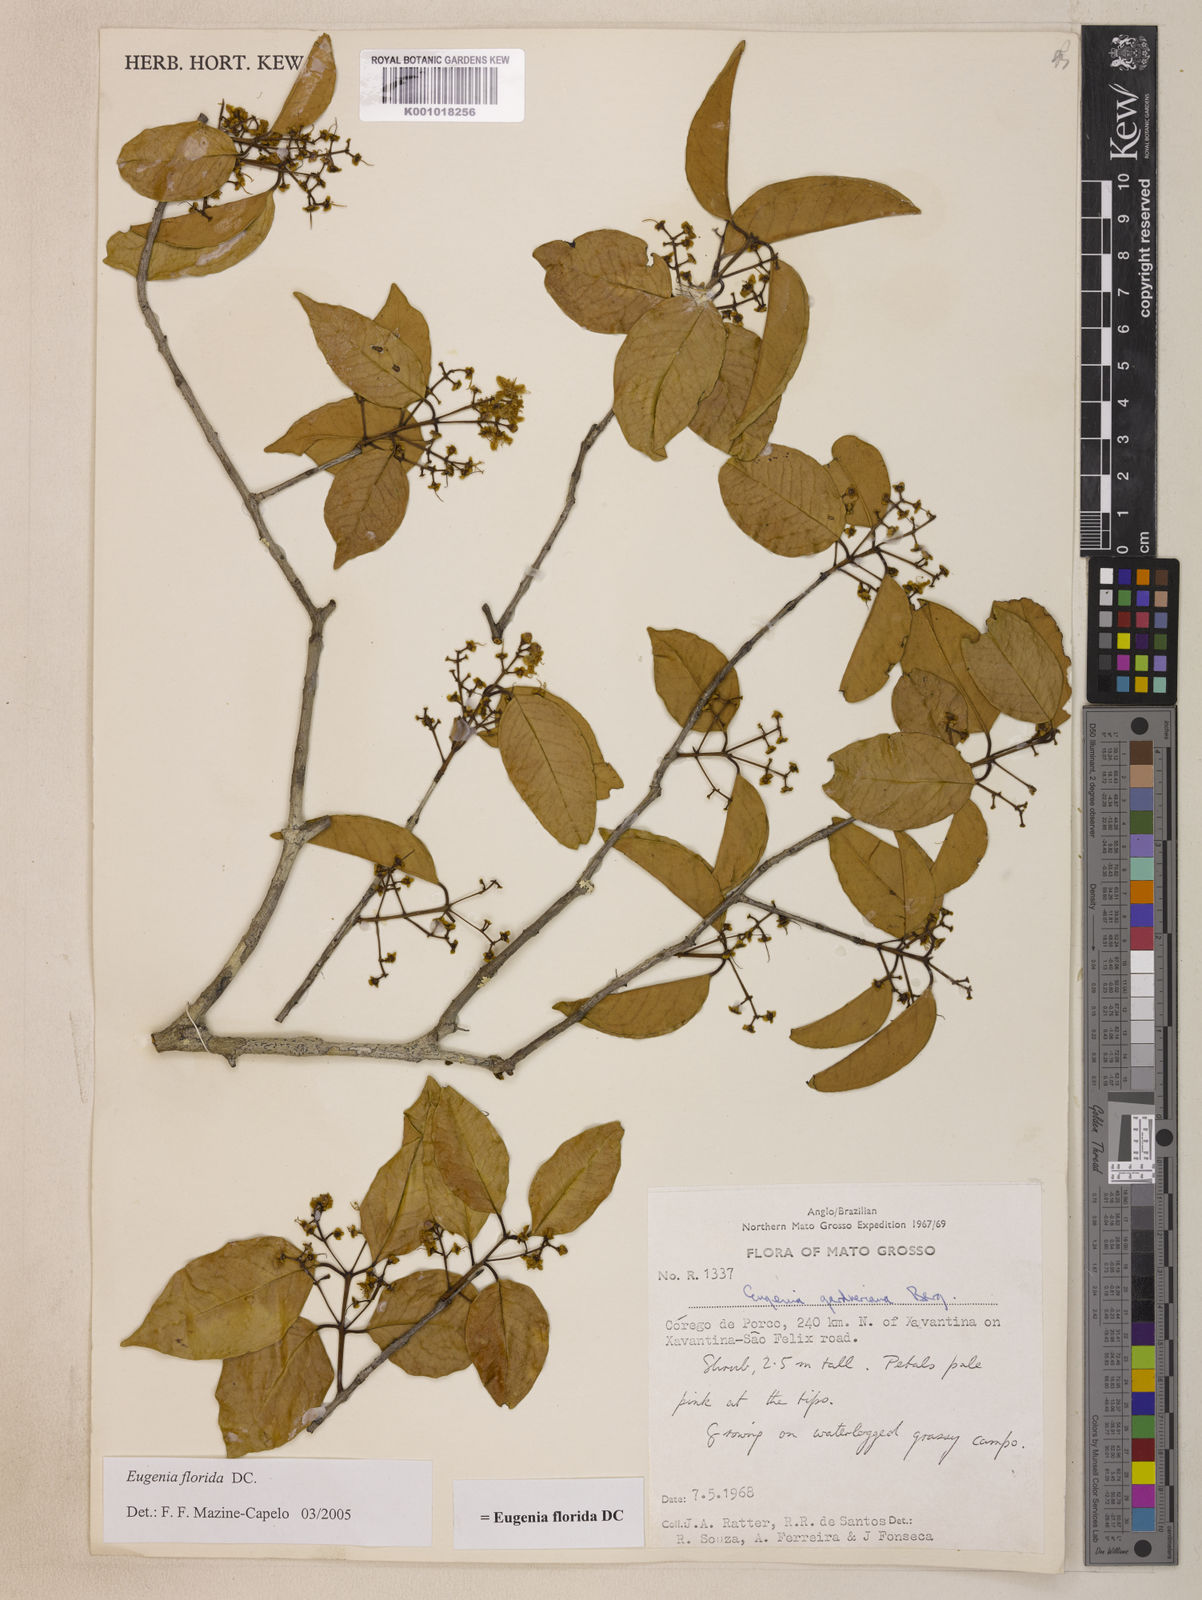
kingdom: Plantae
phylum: Tracheophyta
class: Magnoliopsida
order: Myrtales
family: Myrtaceae
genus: Eugenia
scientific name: Eugenia florida
